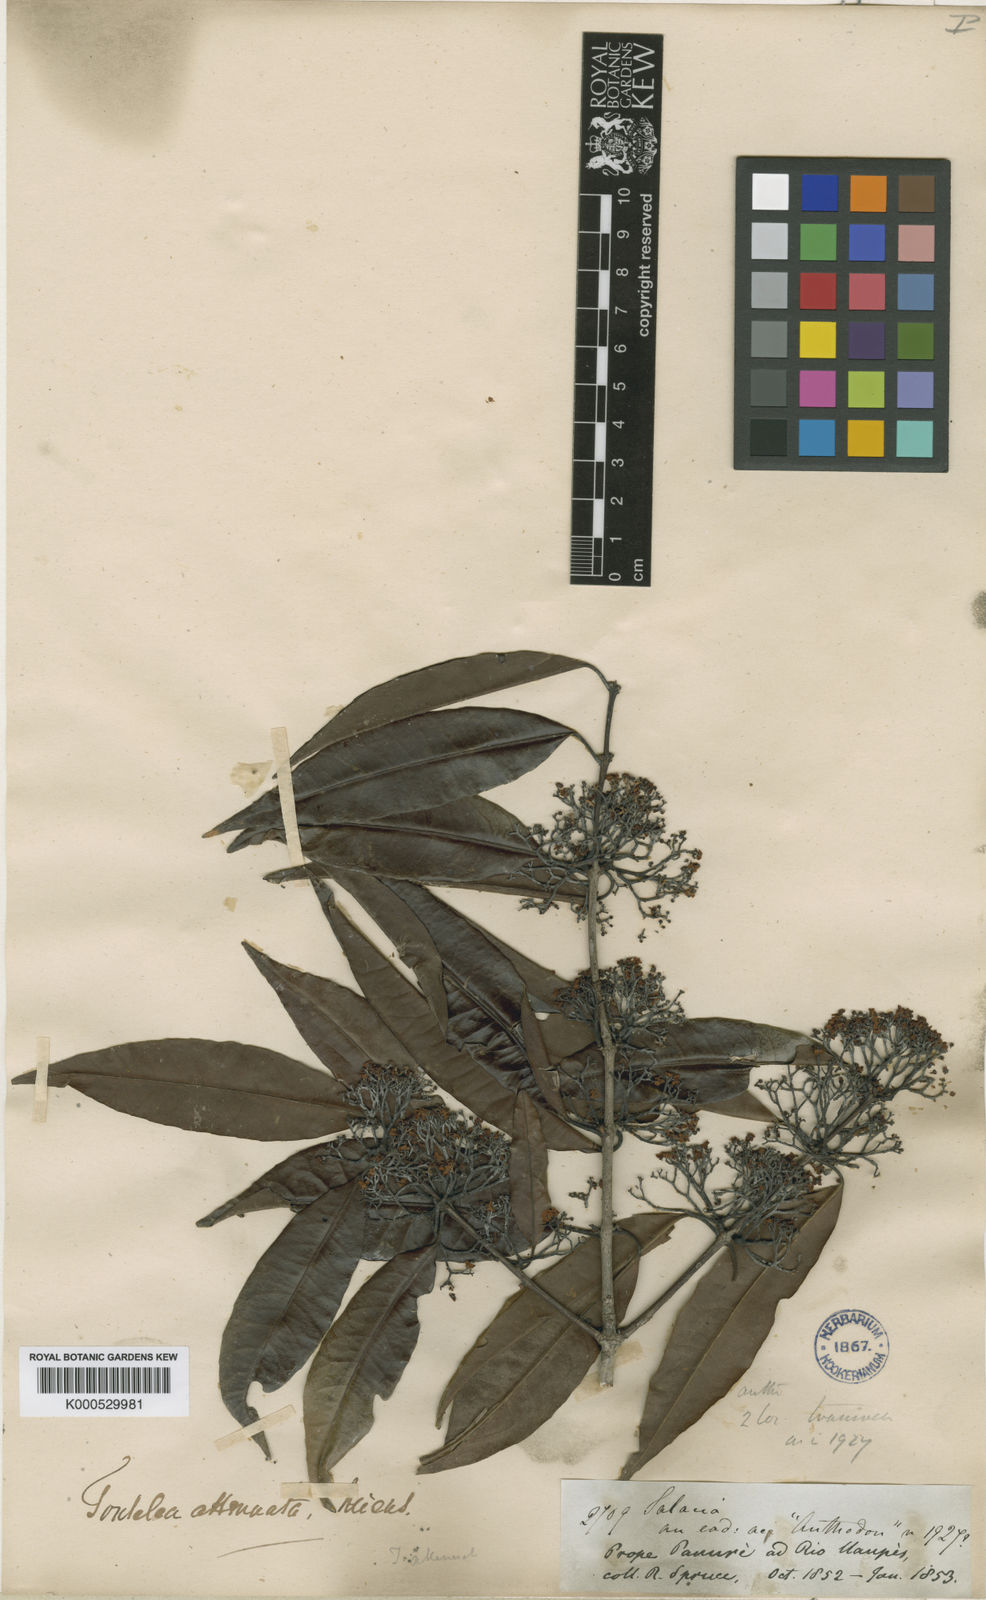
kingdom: Plantae
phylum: Tracheophyta
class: Magnoliopsida
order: Celastrales
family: Celastraceae
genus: Tontelea
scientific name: Tontelea attenuata
